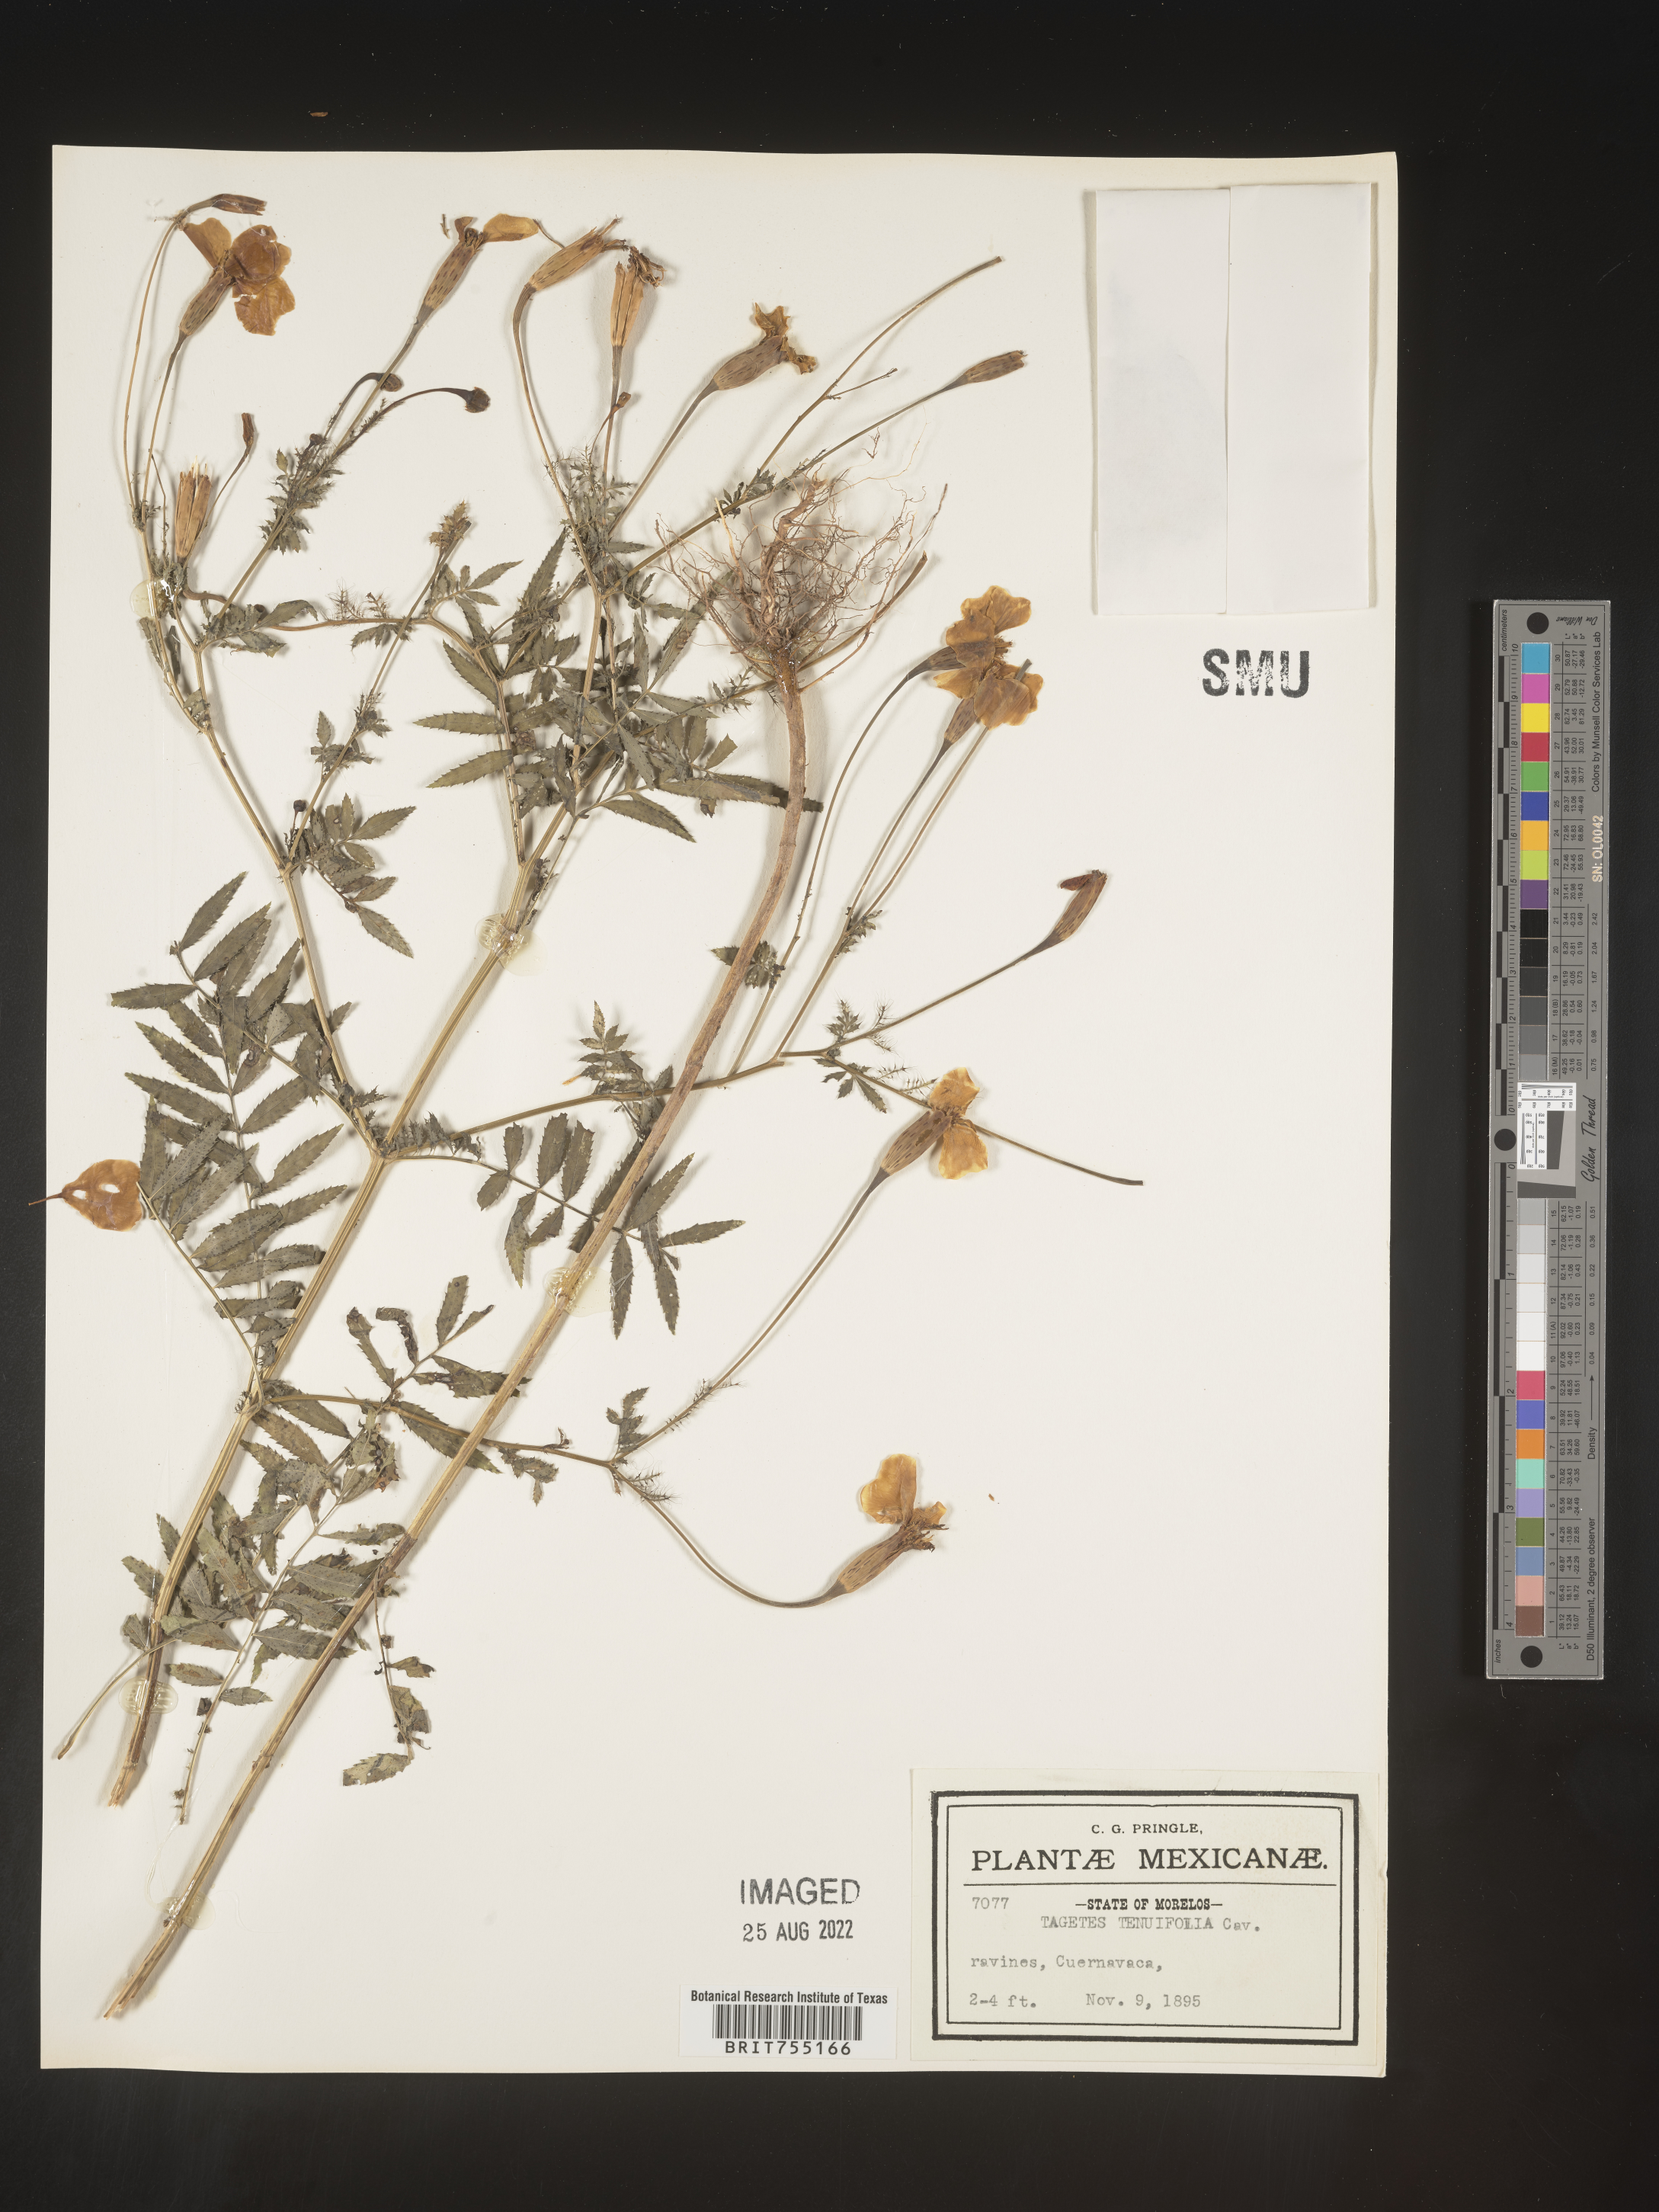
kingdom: Plantae
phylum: Tracheophyta
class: Magnoliopsida
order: Asterales
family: Asteraceae
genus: Tagetes
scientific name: Tagetes
